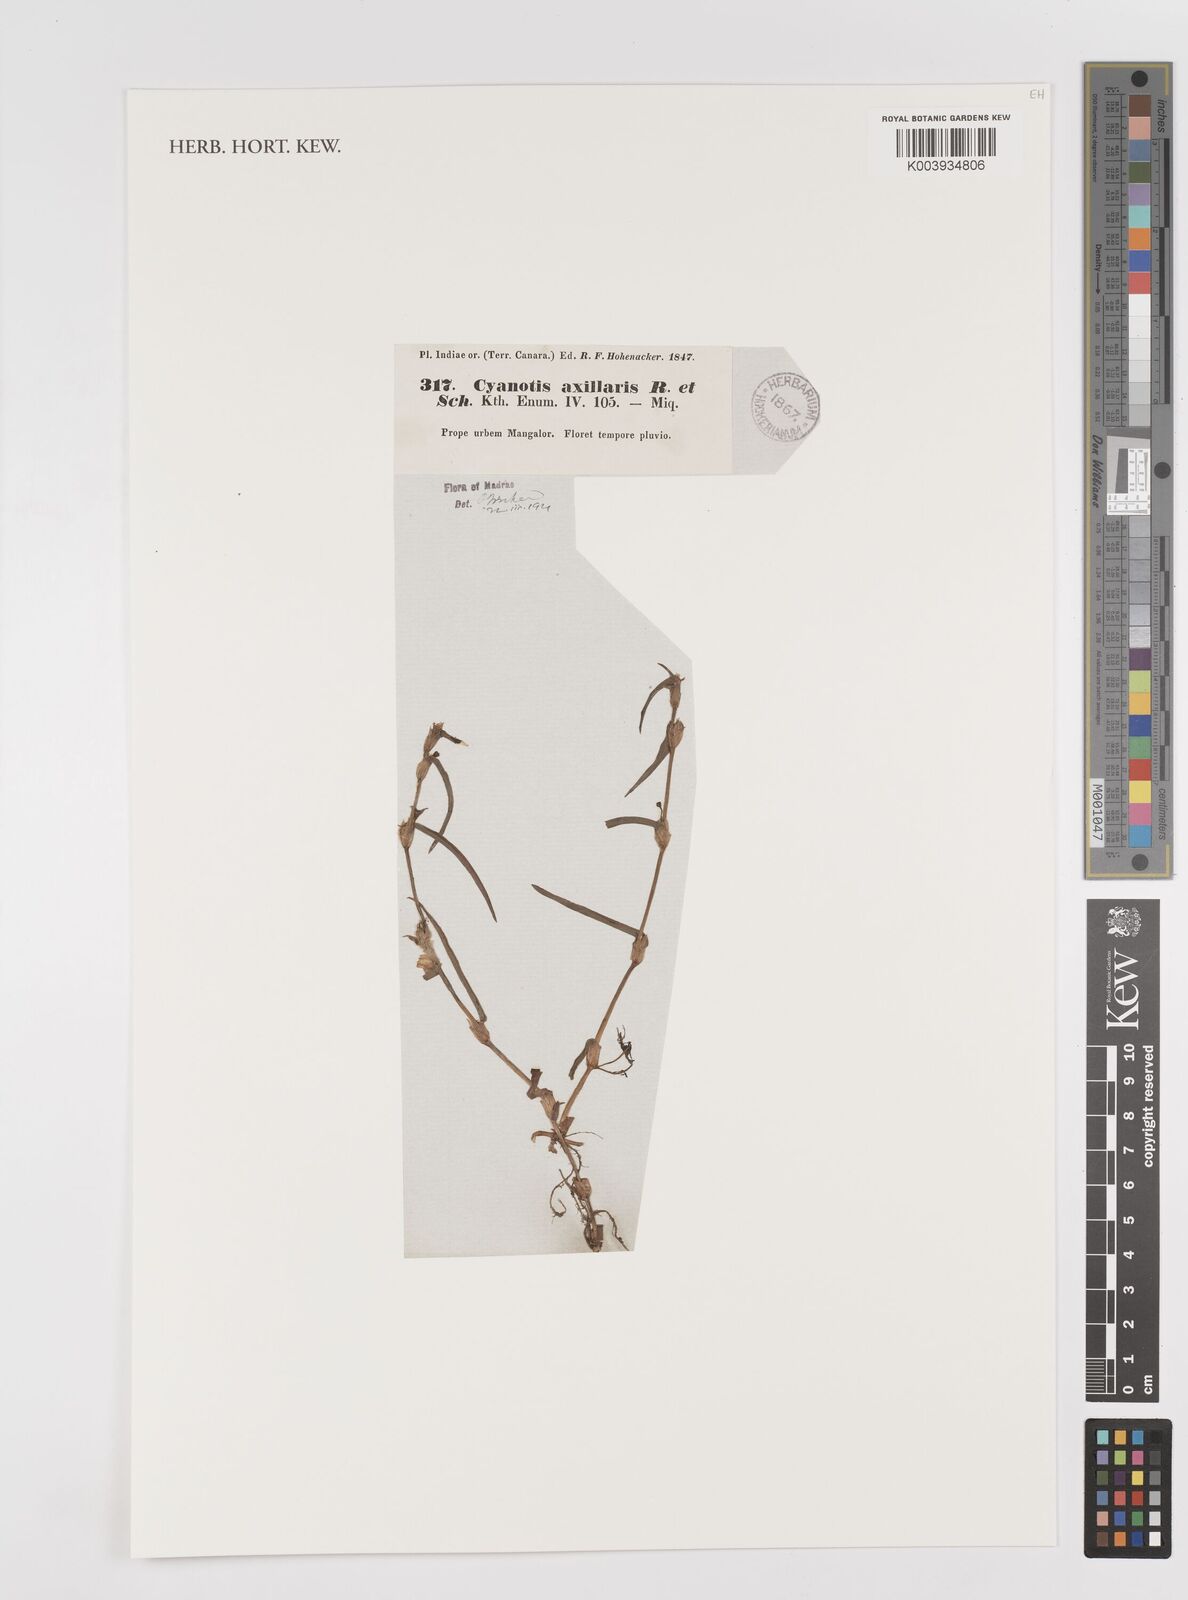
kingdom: Plantae
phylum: Tracheophyta
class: Liliopsida
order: Commelinales
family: Commelinaceae
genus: Cyanotis
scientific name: Cyanotis axillaris
